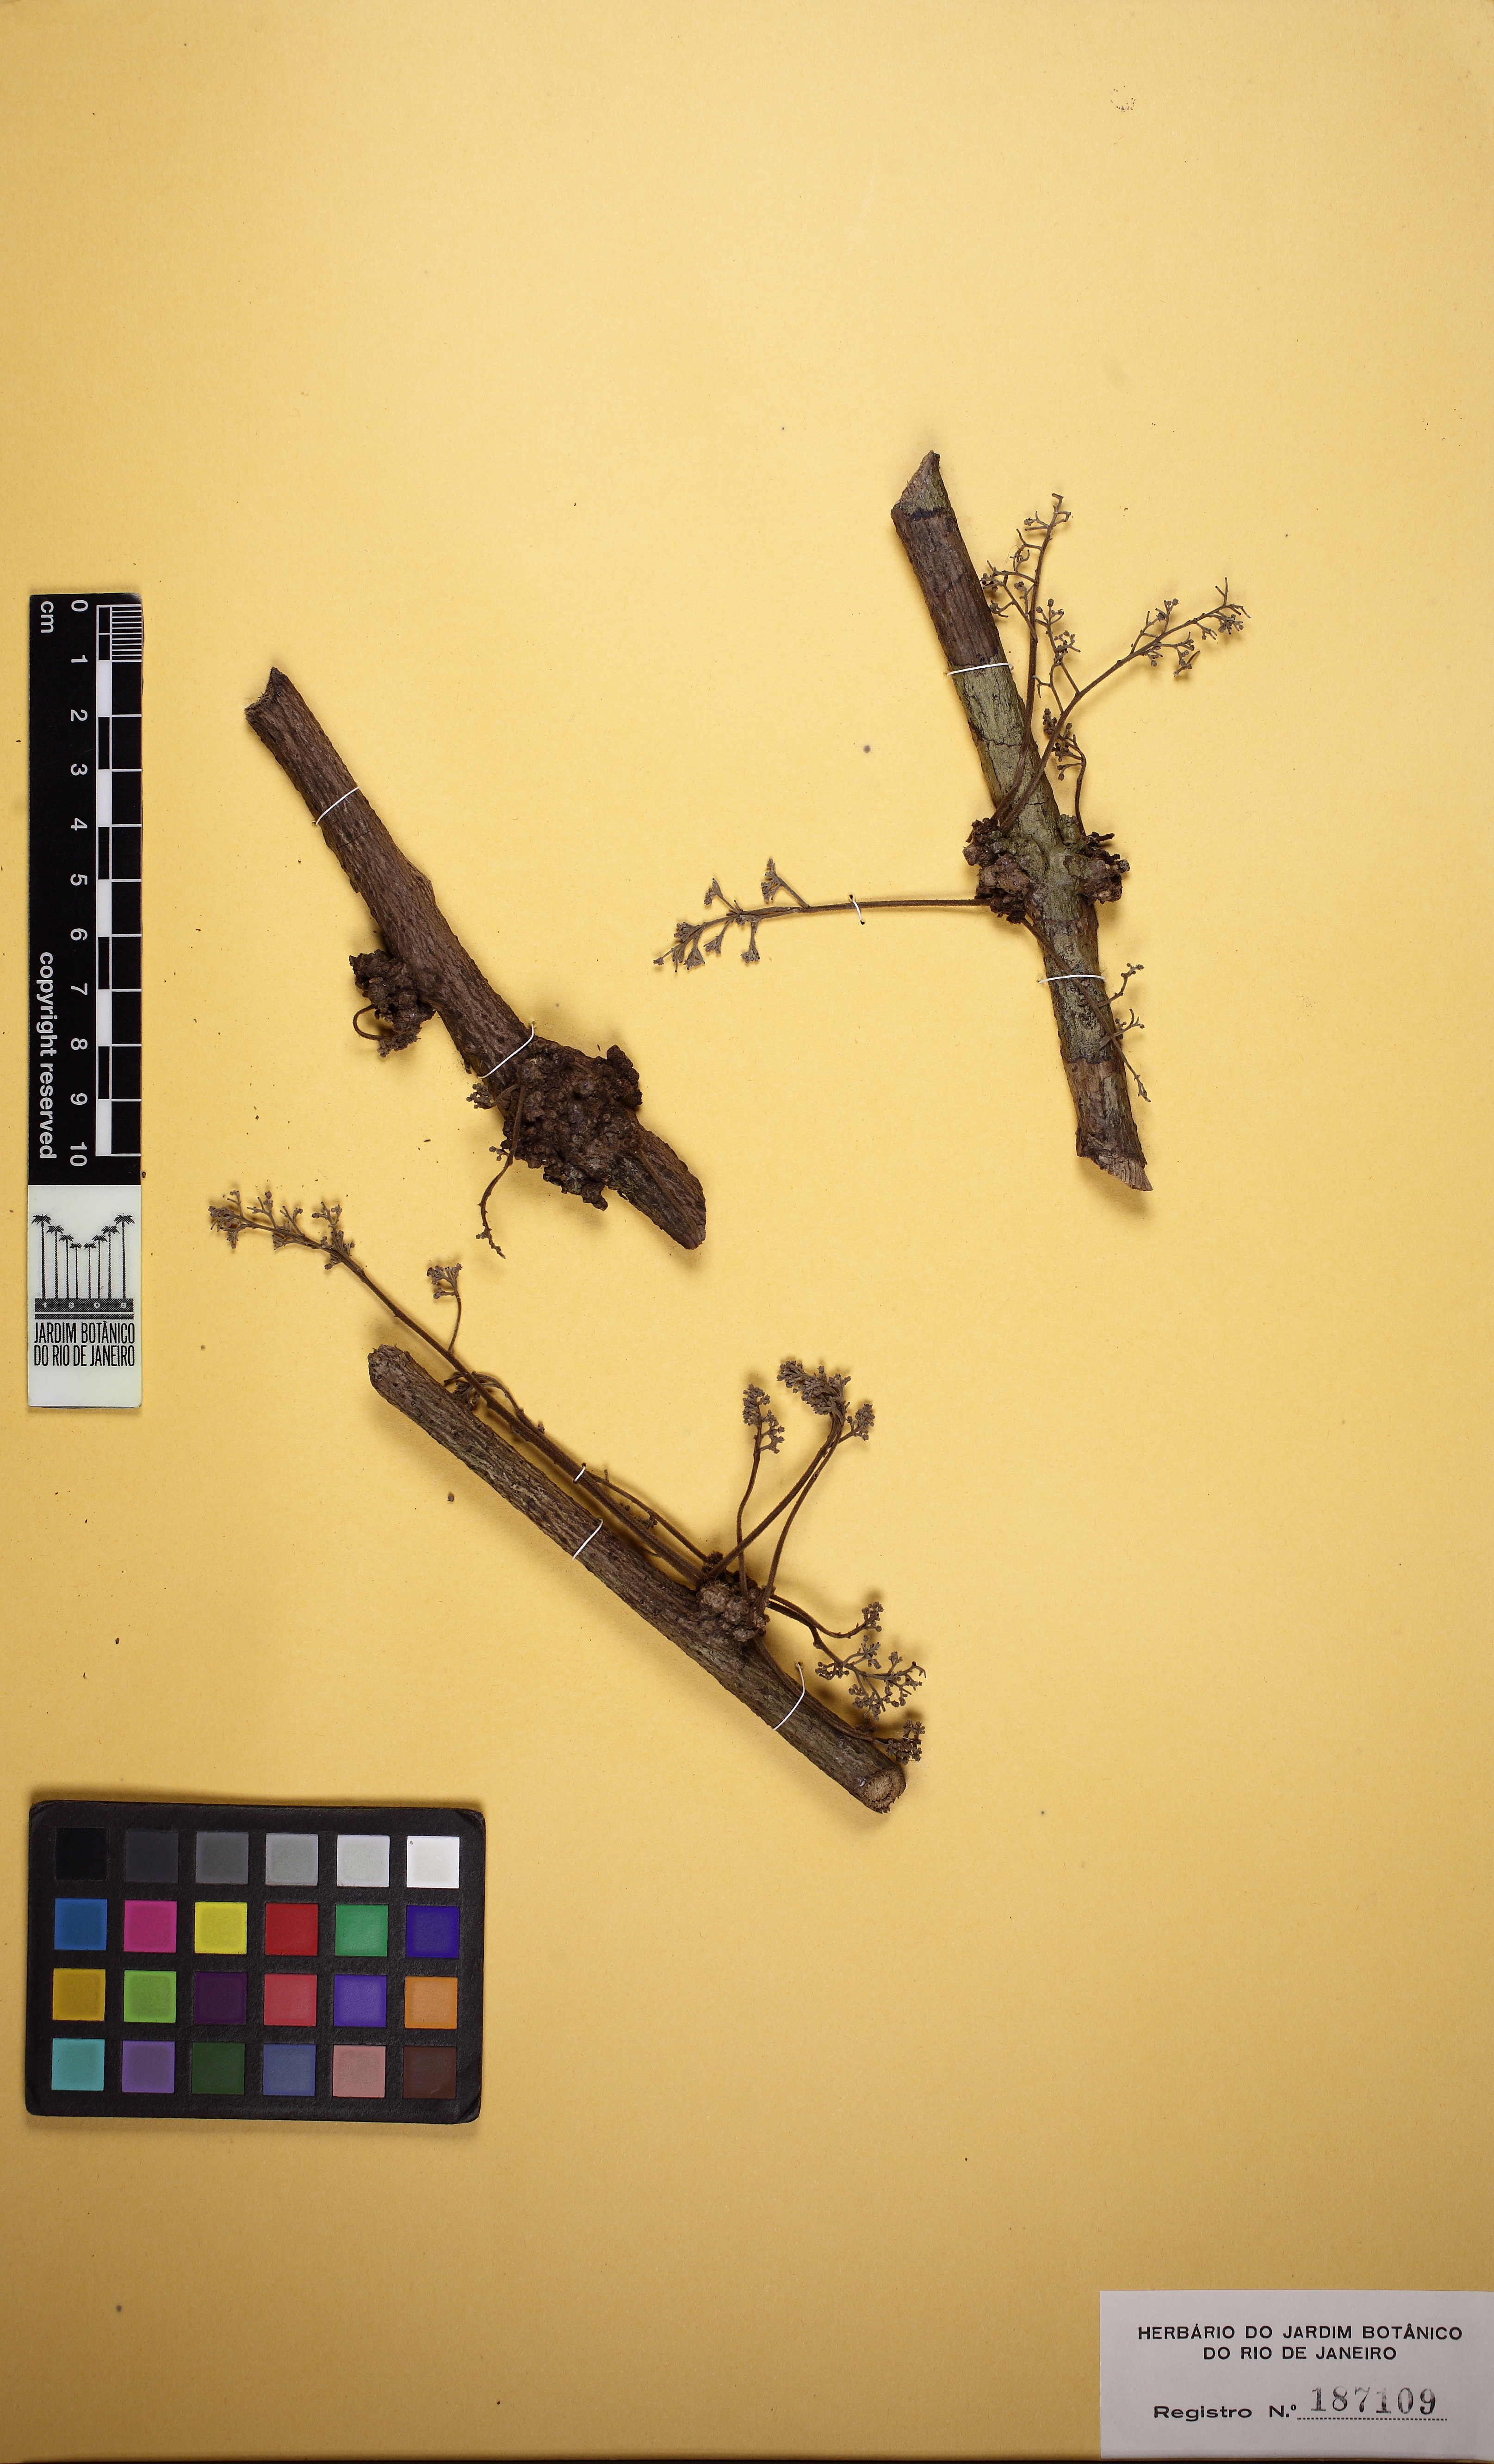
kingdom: Plantae
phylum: Tracheophyta
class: Magnoliopsida
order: Ranunculales
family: Menispermaceae
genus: Chondrodendron
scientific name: Chondrodendron microphyllum
